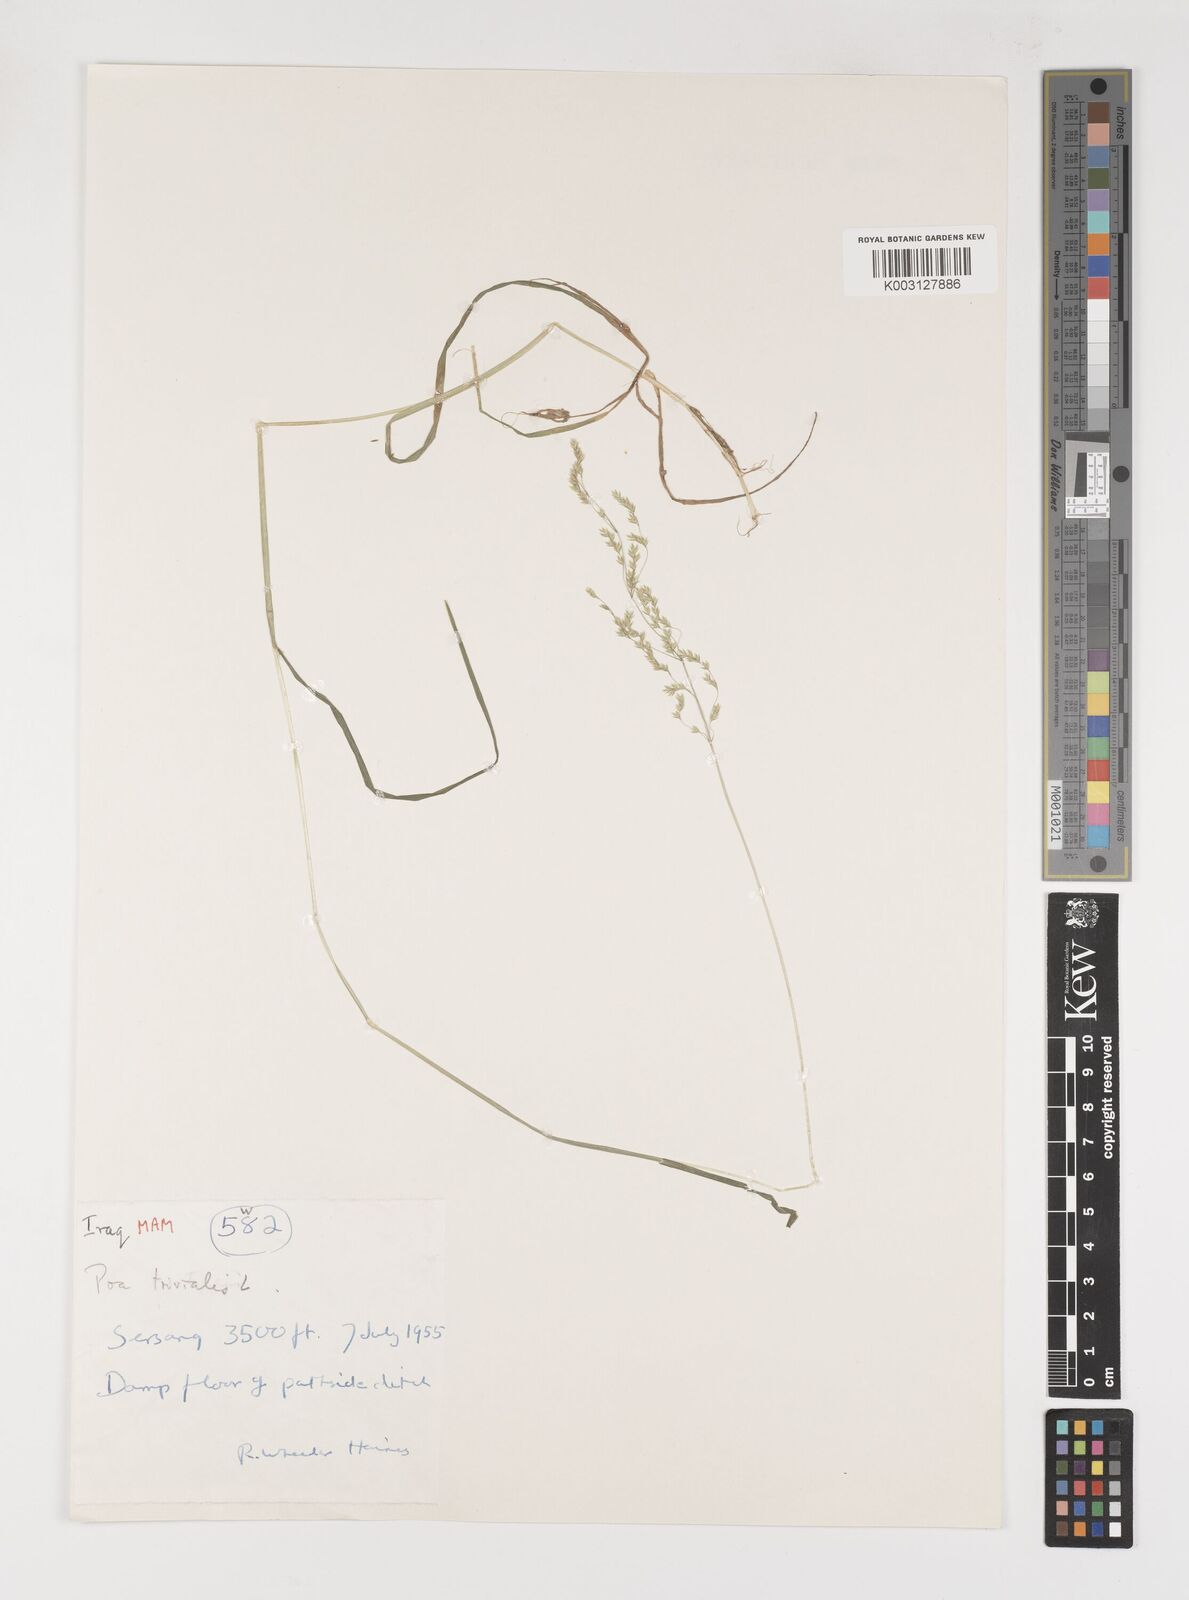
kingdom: Plantae
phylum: Tracheophyta
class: Liliopsida
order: Poales
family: Poaceae
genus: Poa
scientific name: Poa trivialis
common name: Rough bluegrass
